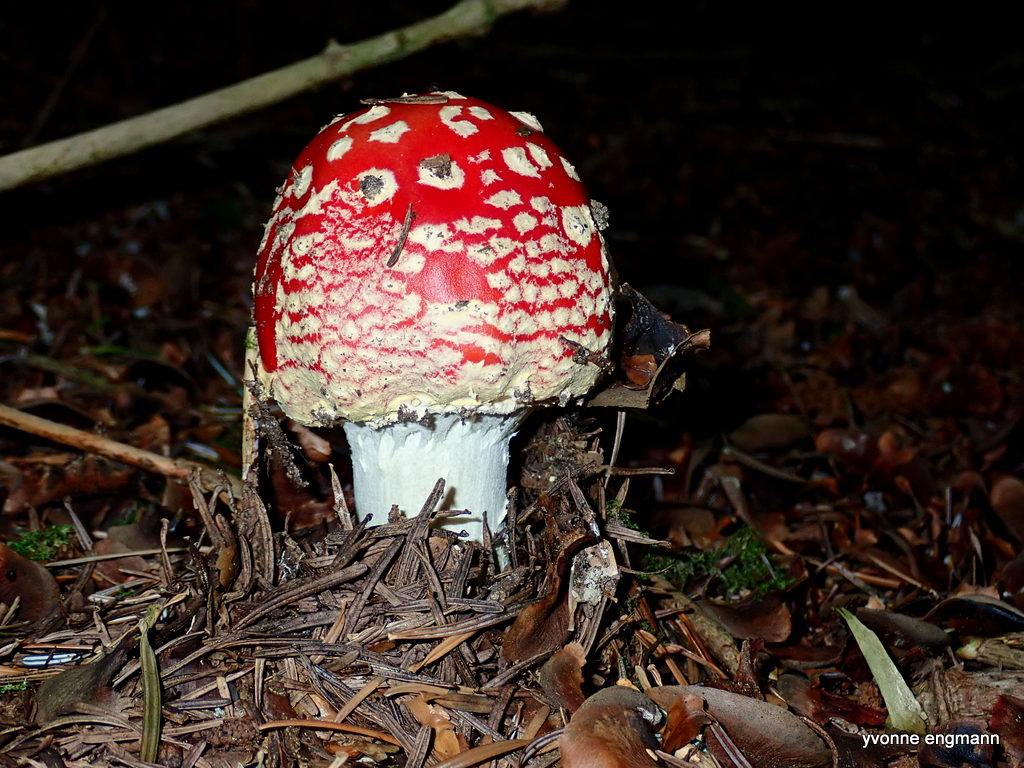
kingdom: Fungi
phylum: Basidiomycota
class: Agaricomycetes
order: Agaricales
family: Amanitaceae
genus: Amanita
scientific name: Amanita muscaria
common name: rød fluesvamp
